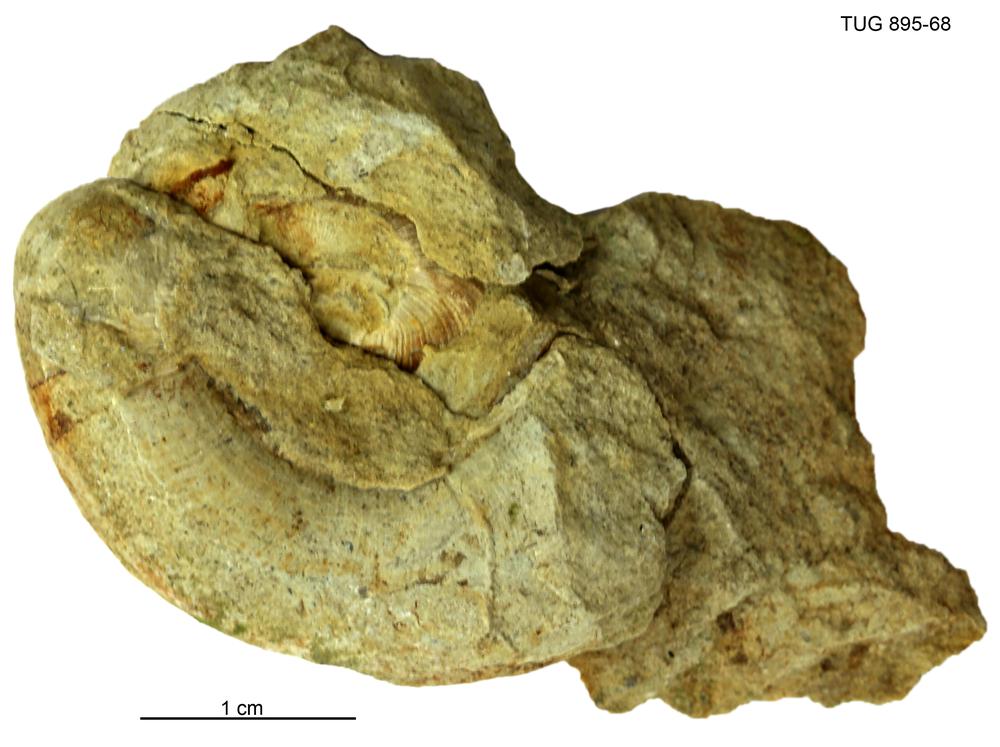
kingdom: Animalia
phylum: Mollusca
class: Cephalopoda
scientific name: Cephalopoda
